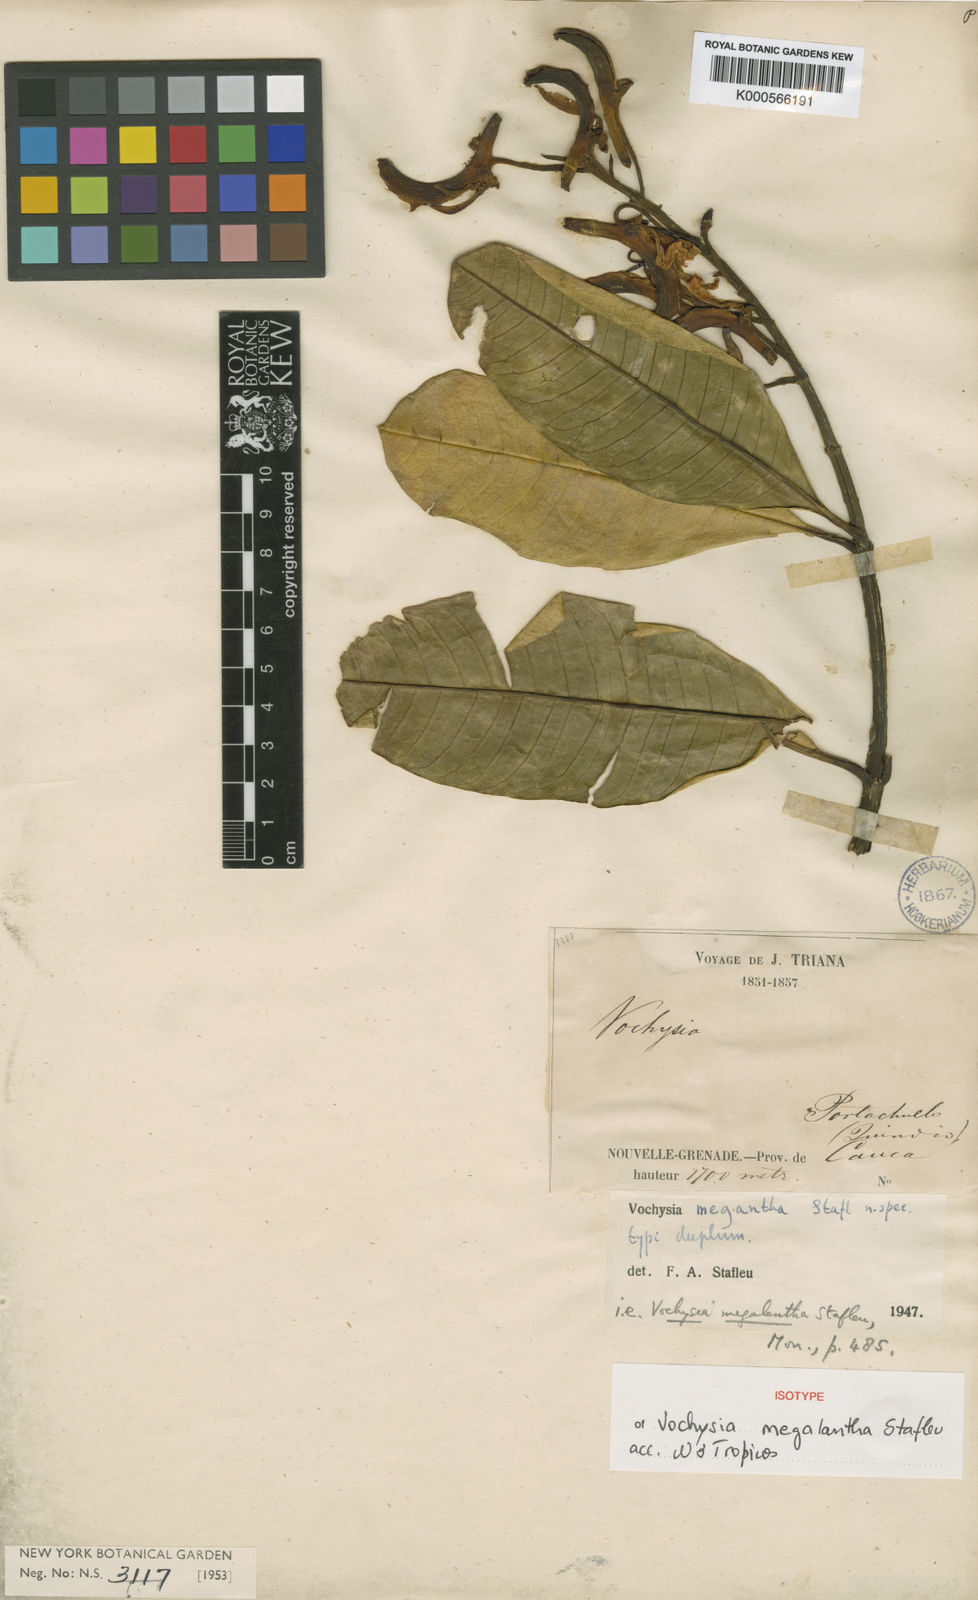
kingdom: Plantae
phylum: Tracheophyta
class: Magnoliopsida
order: Myrtales
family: Vochysiaceae
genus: Vochysia
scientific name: Vochysia megalantha
